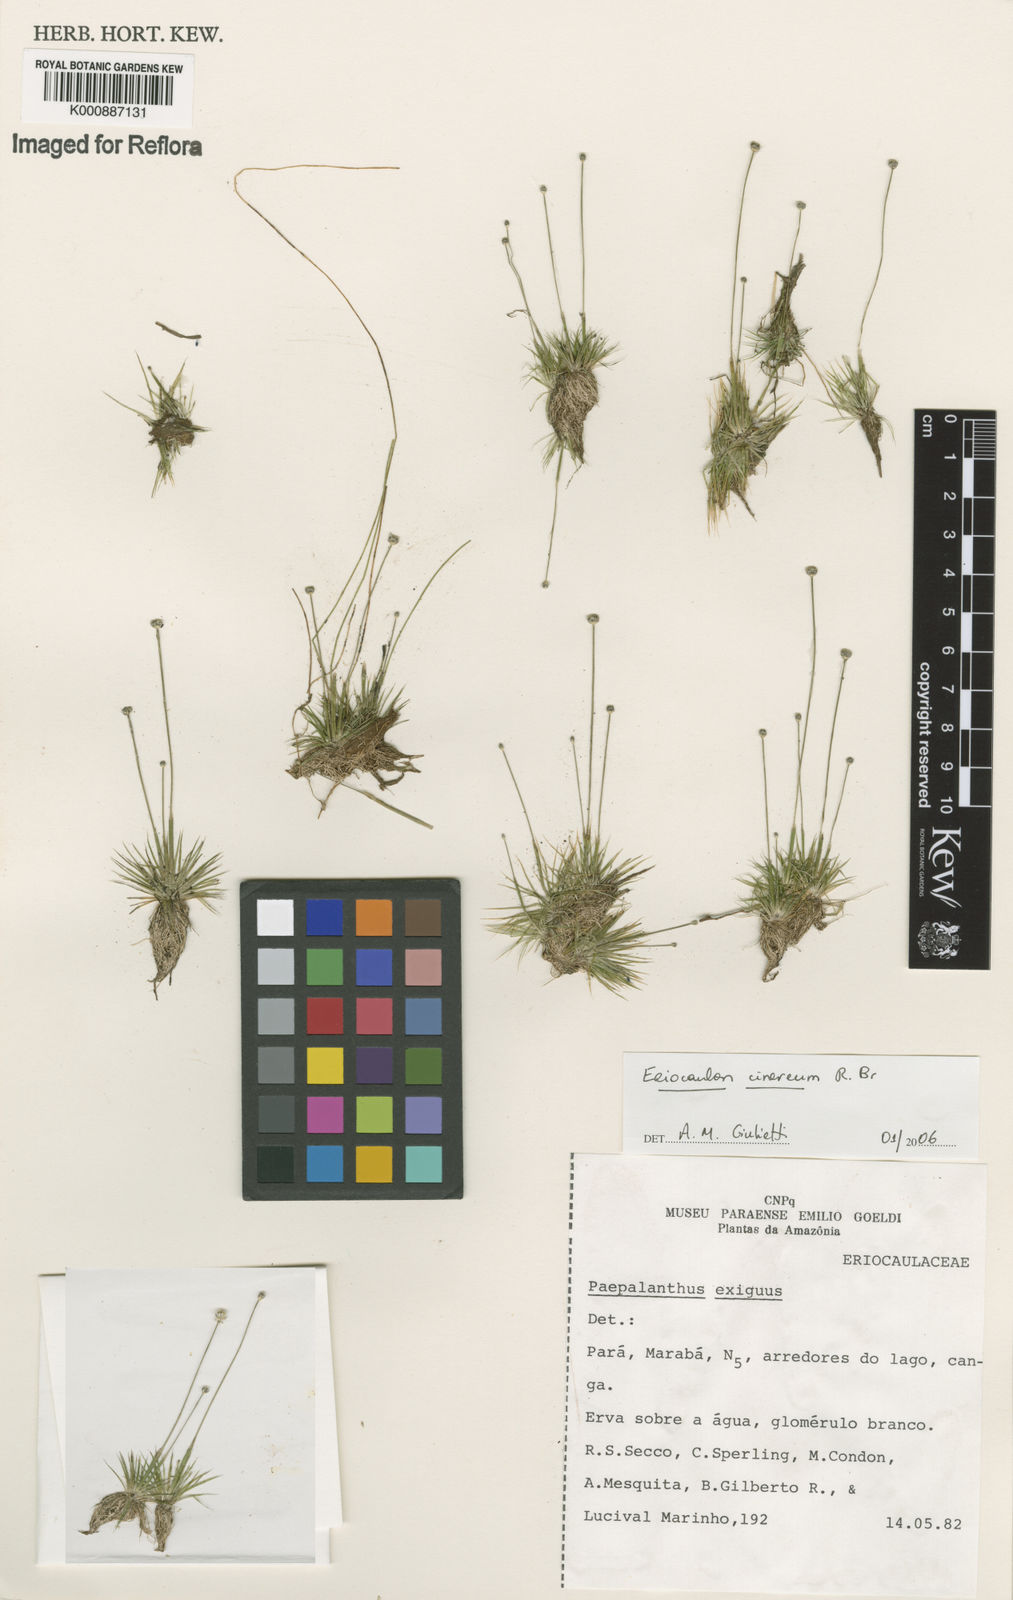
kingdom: Plantae
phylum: Tracheophyta
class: Liliopsida
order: Poales
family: Eriocaulaceae
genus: Eriocaulon
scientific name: Eriocaulon cinereum
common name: Ashy pipewort
